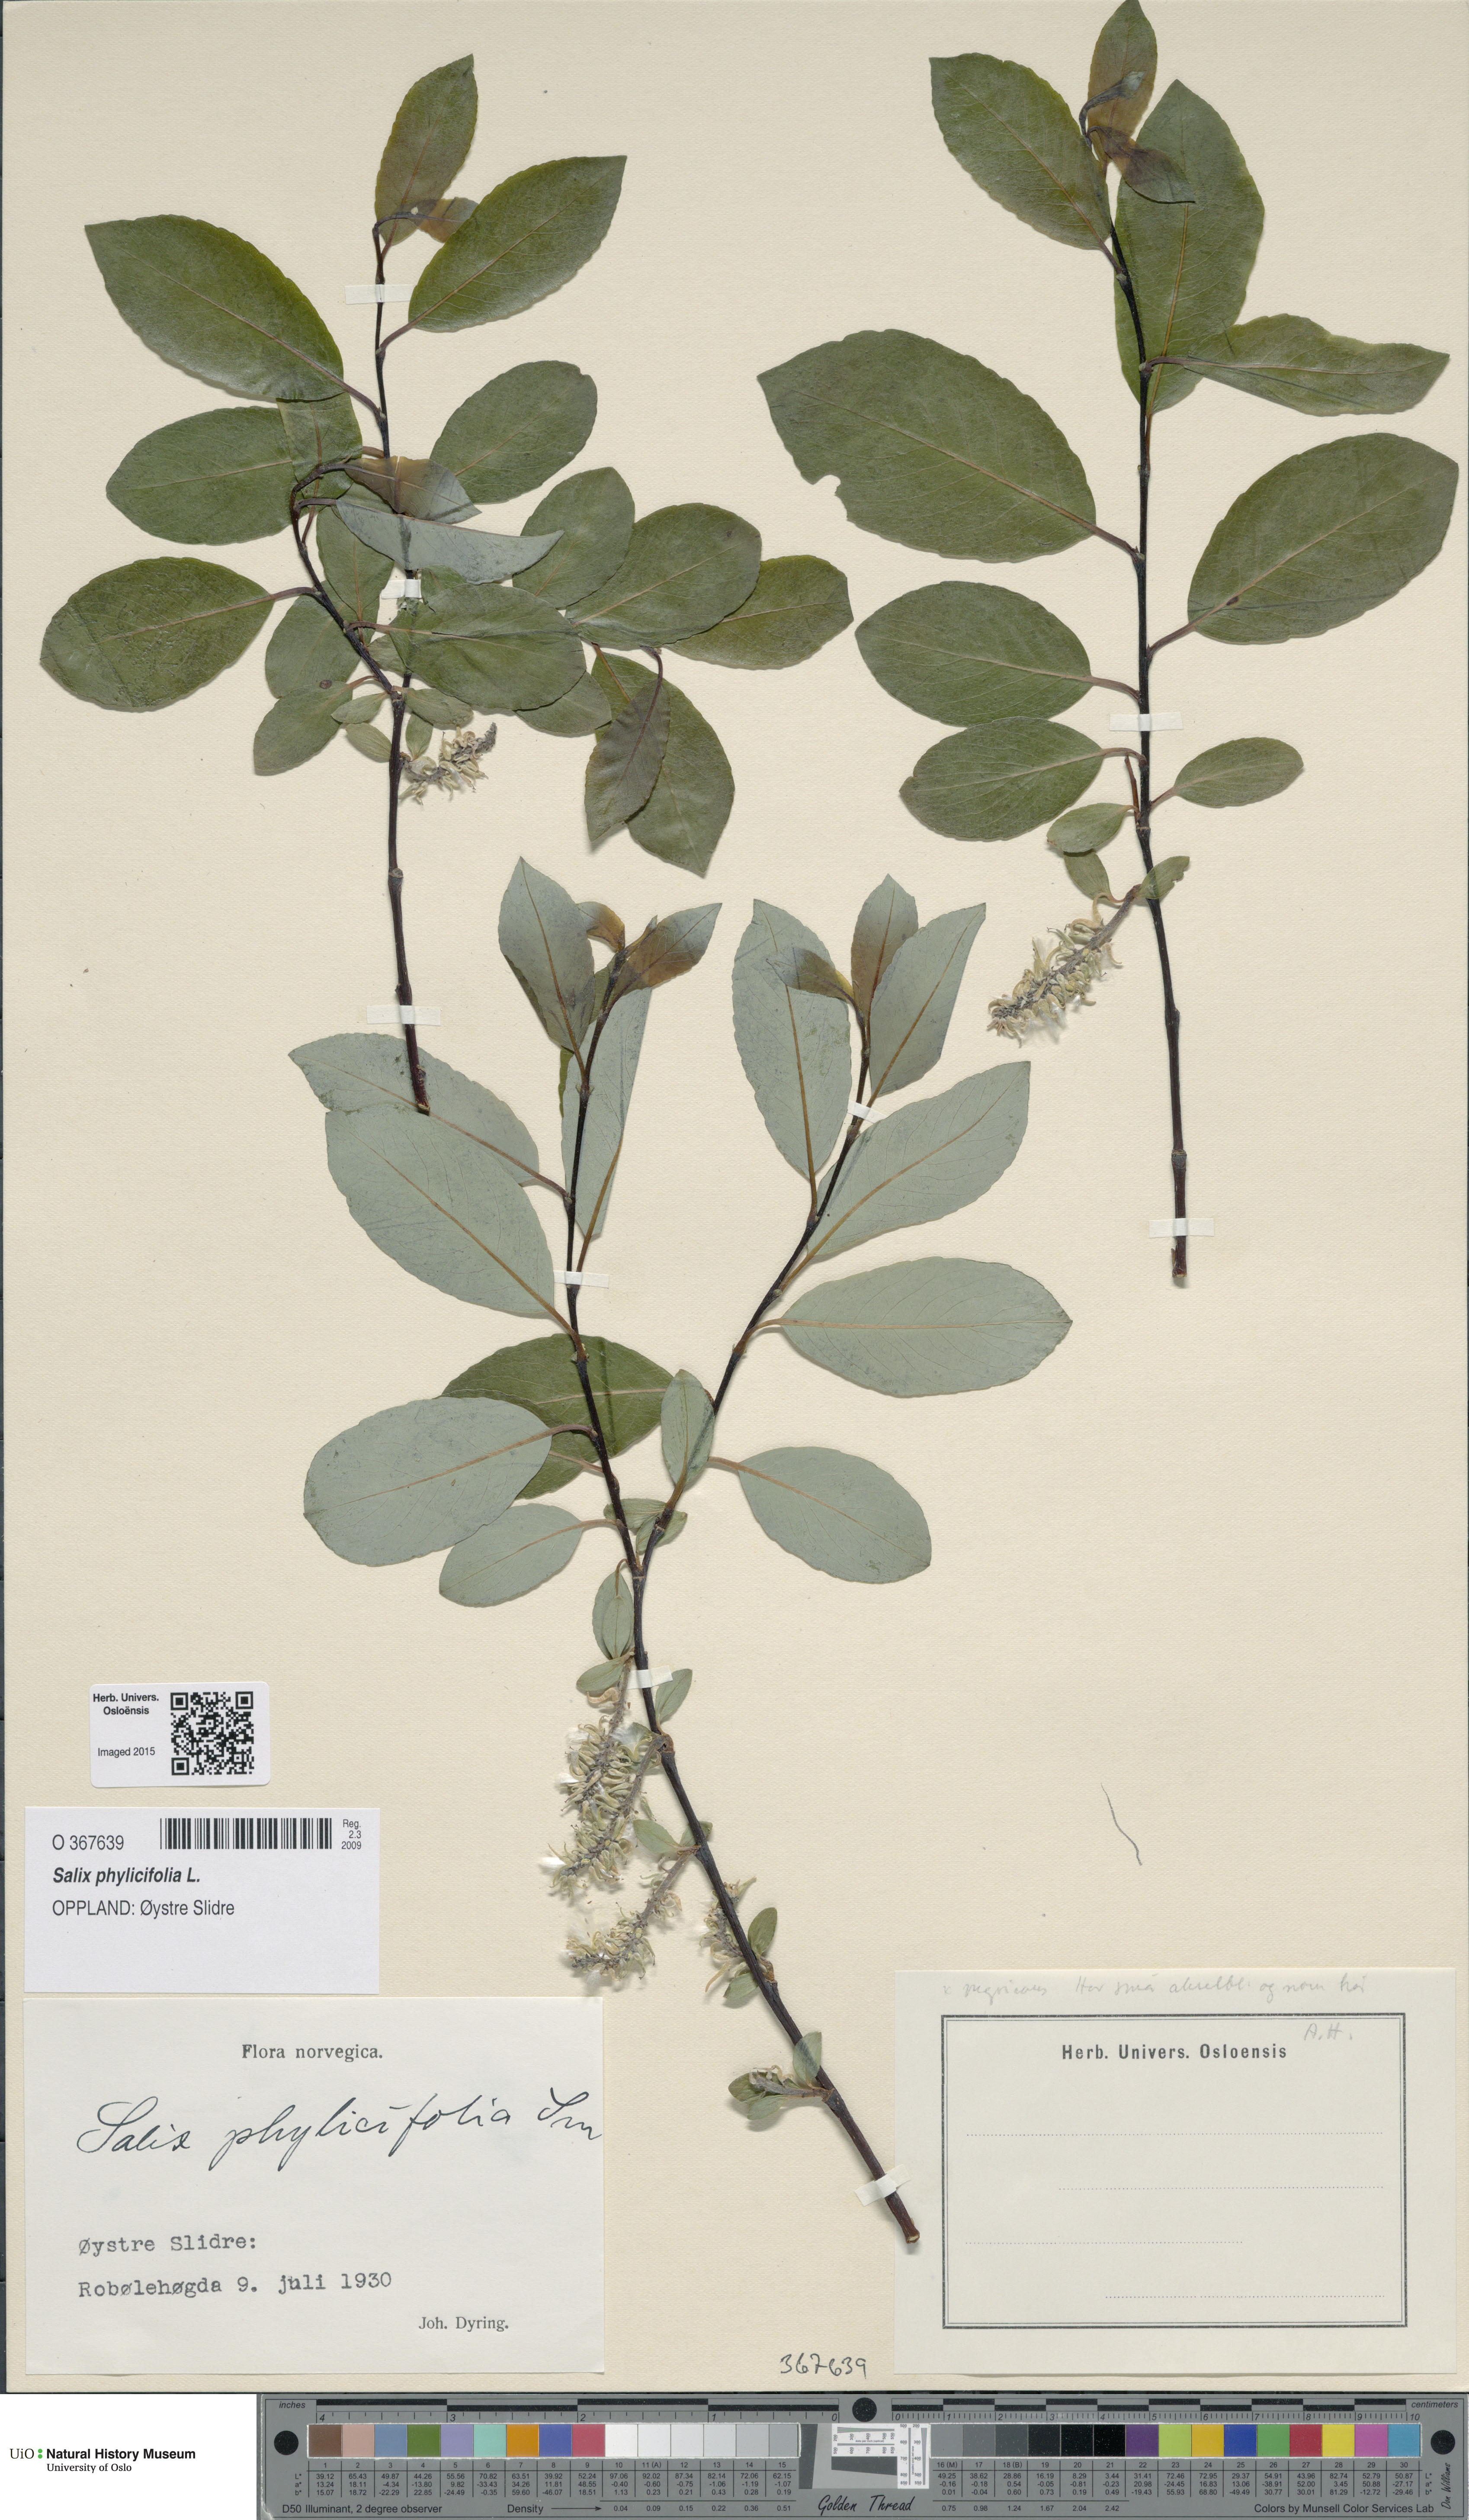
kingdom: Plantae
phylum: Tracheophyta
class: Magnoliopsida
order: Malpighiales
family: Salicaceae
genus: Salix
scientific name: Salix phylicifolia
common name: Tea-leaved willow
